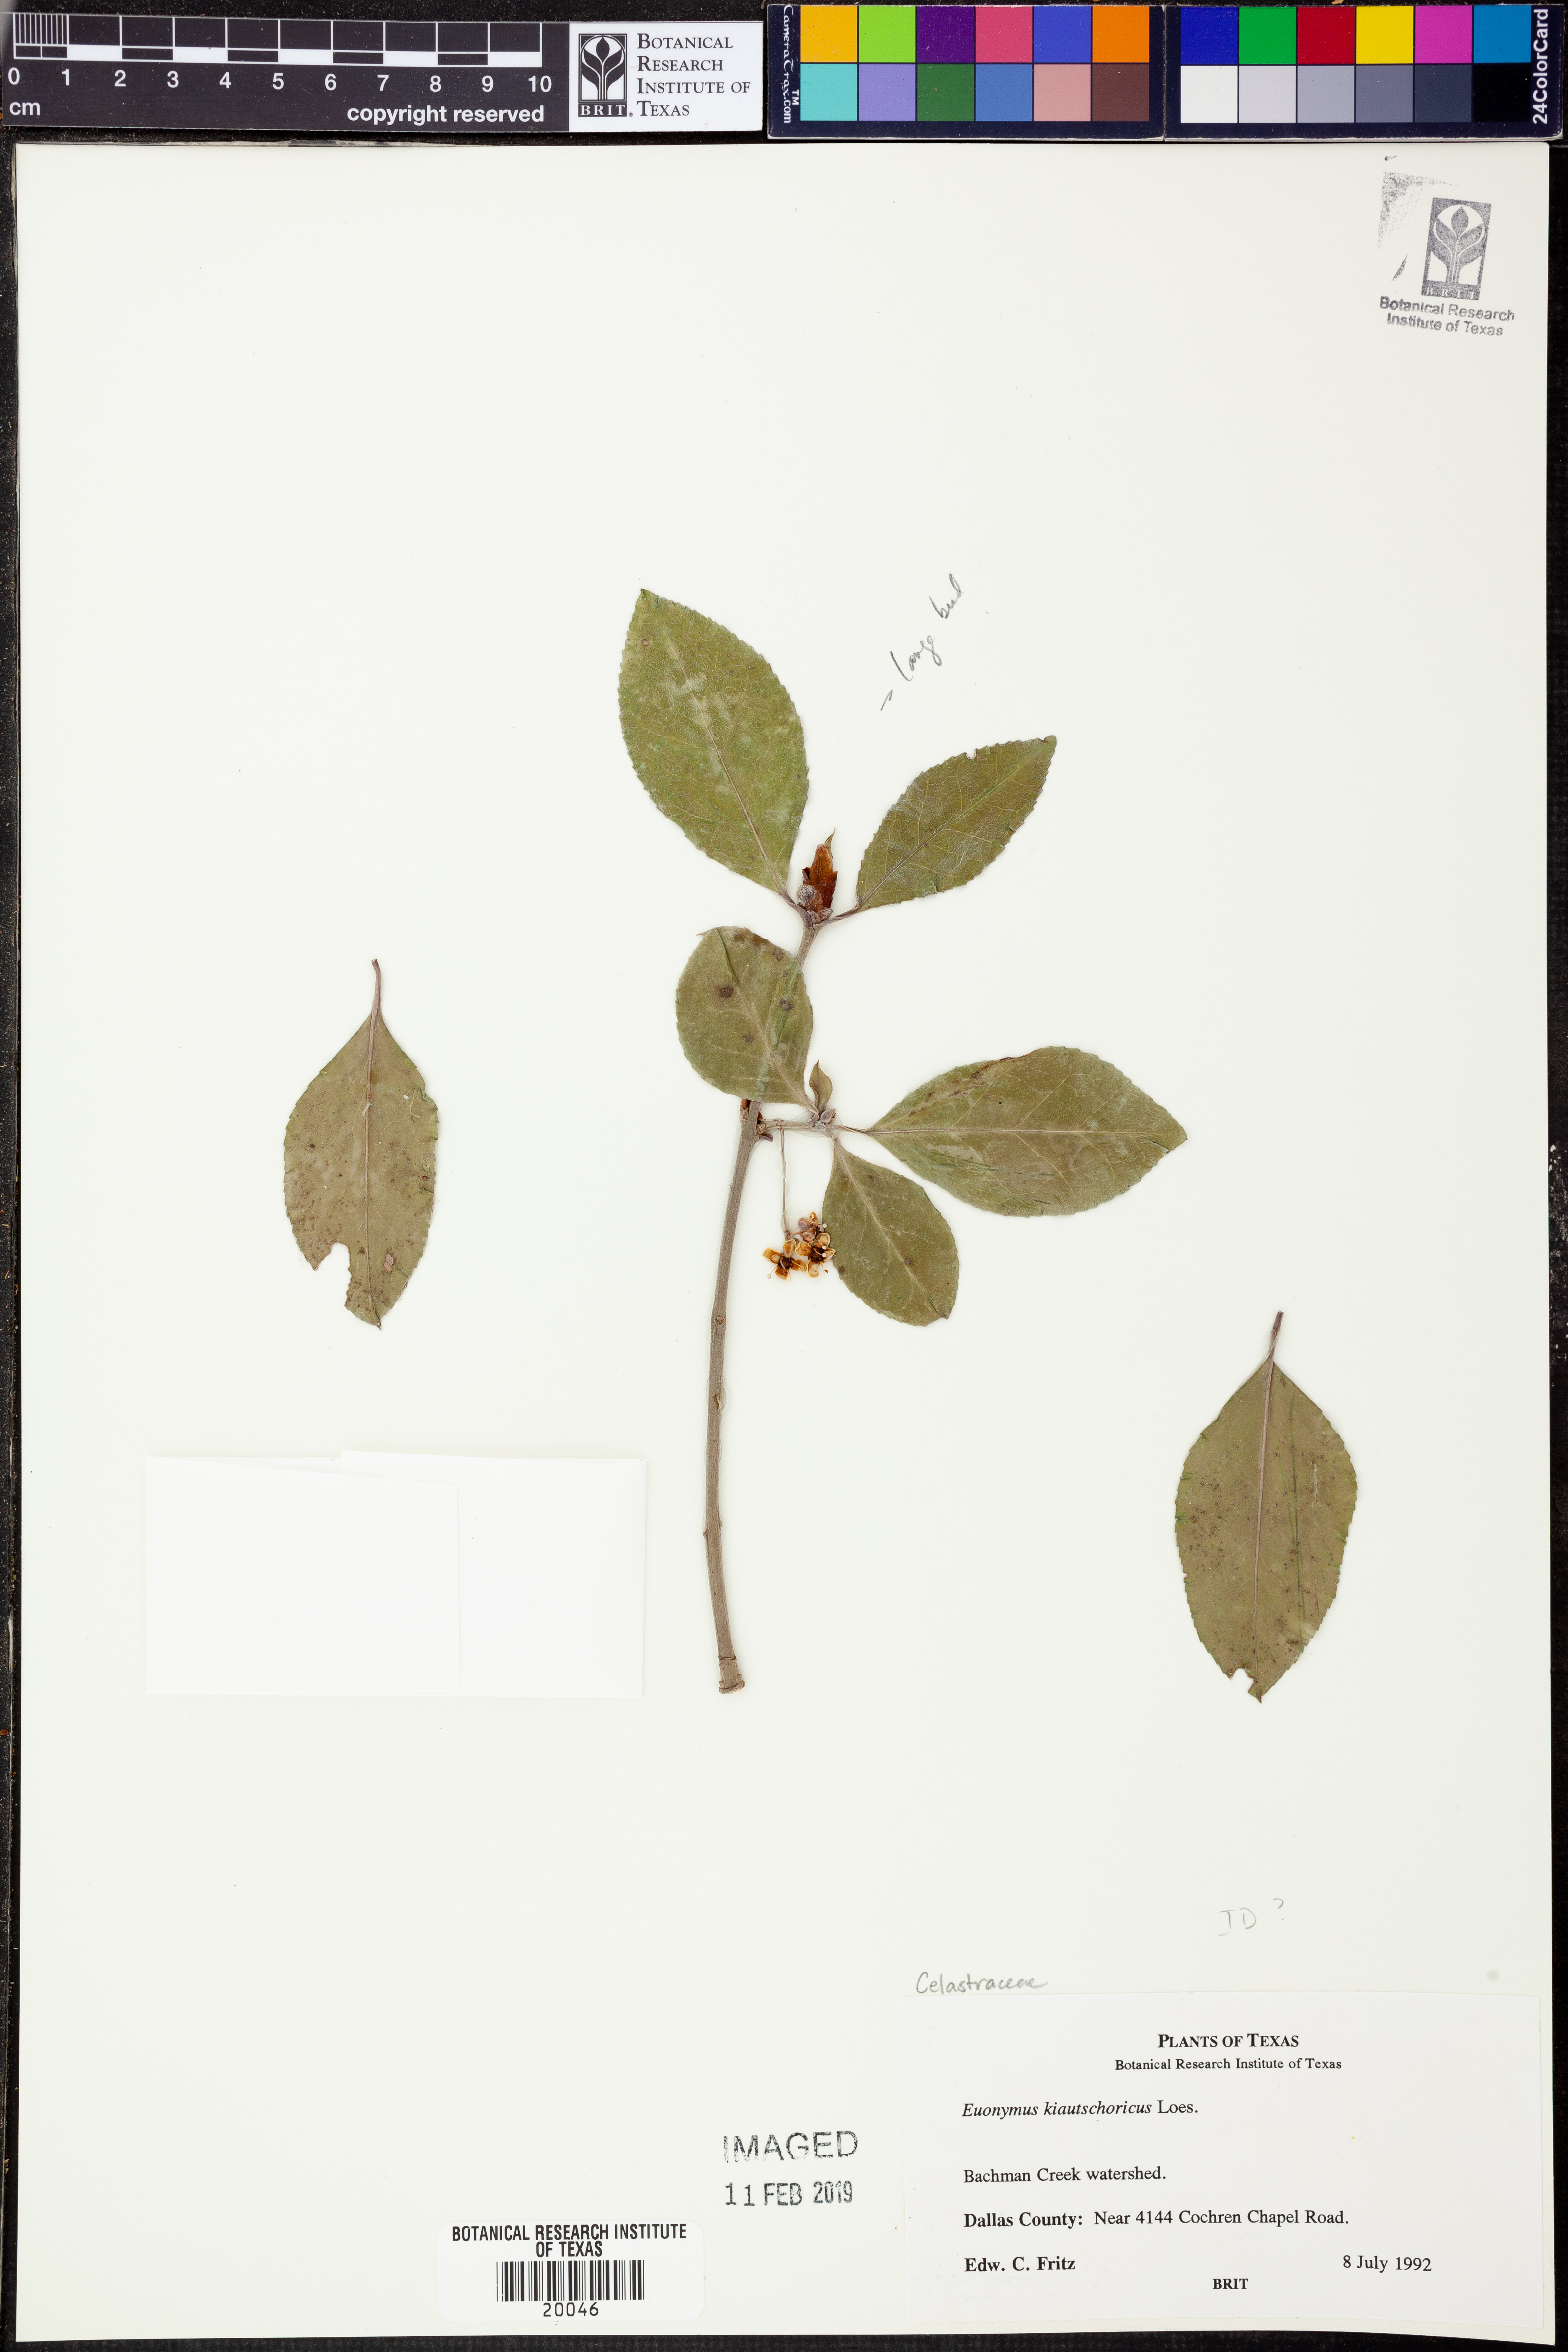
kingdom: Plantae
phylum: Tracheophyta
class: Magnoliopsida
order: Celastrales
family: Celastraceae
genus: Euonymus
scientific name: Euonymus fortunei
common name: Climbing euonymus
